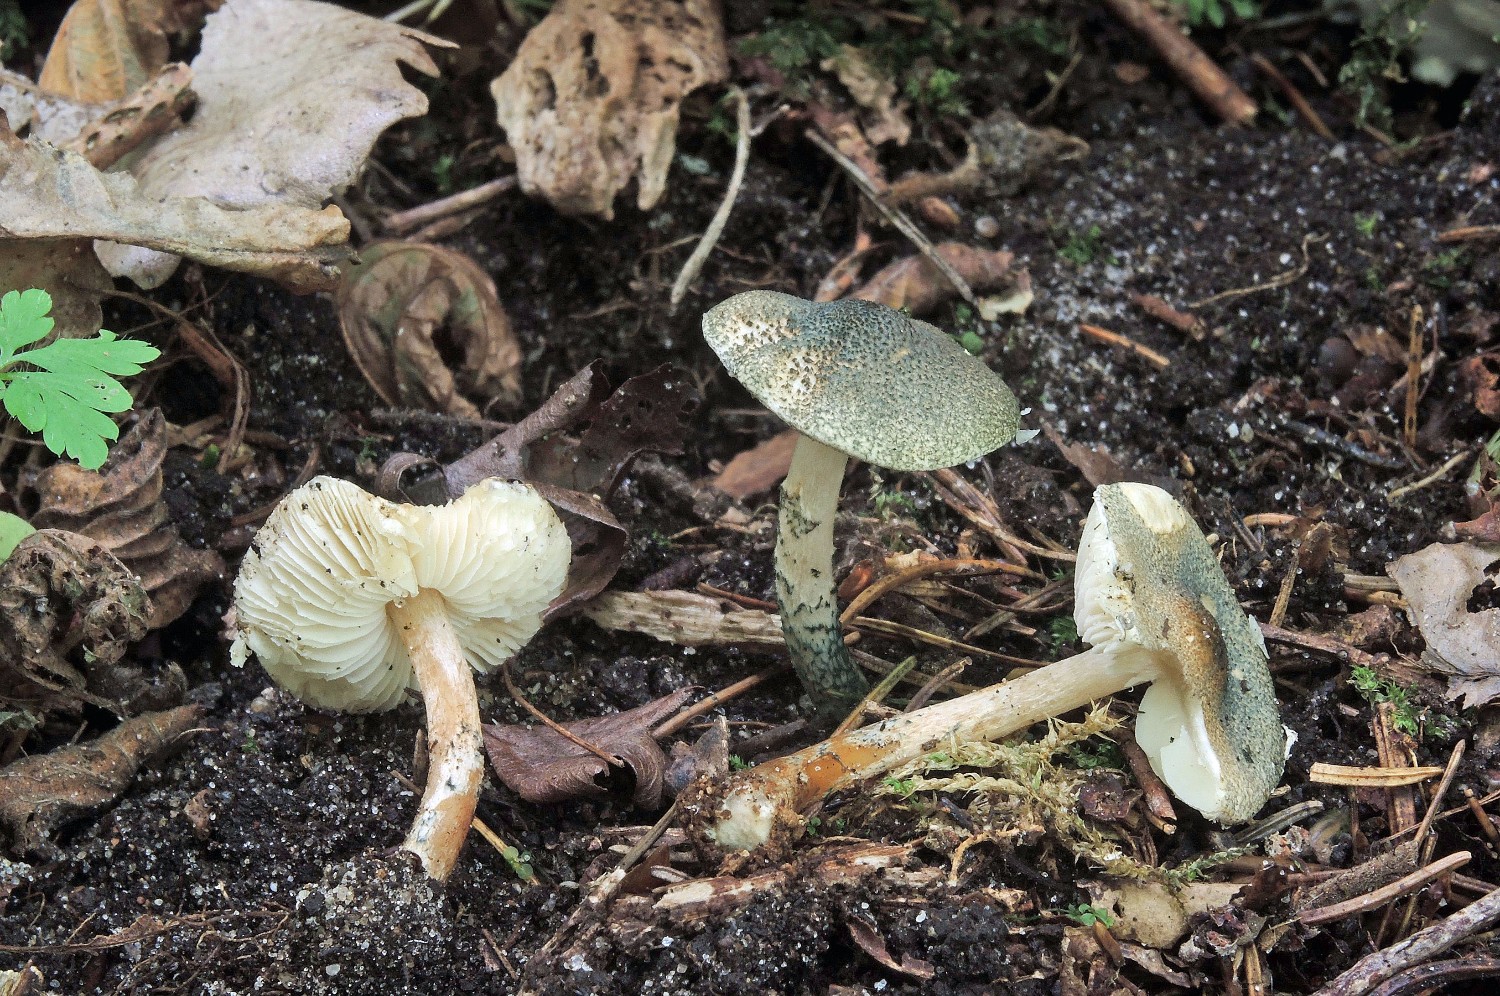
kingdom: Fungi
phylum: Basidiomycota
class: Agaricomycetes
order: Agaricales
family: Agaricaceae
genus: Lepiota
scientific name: Lepiota grangei
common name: grønskællet parasolhat
